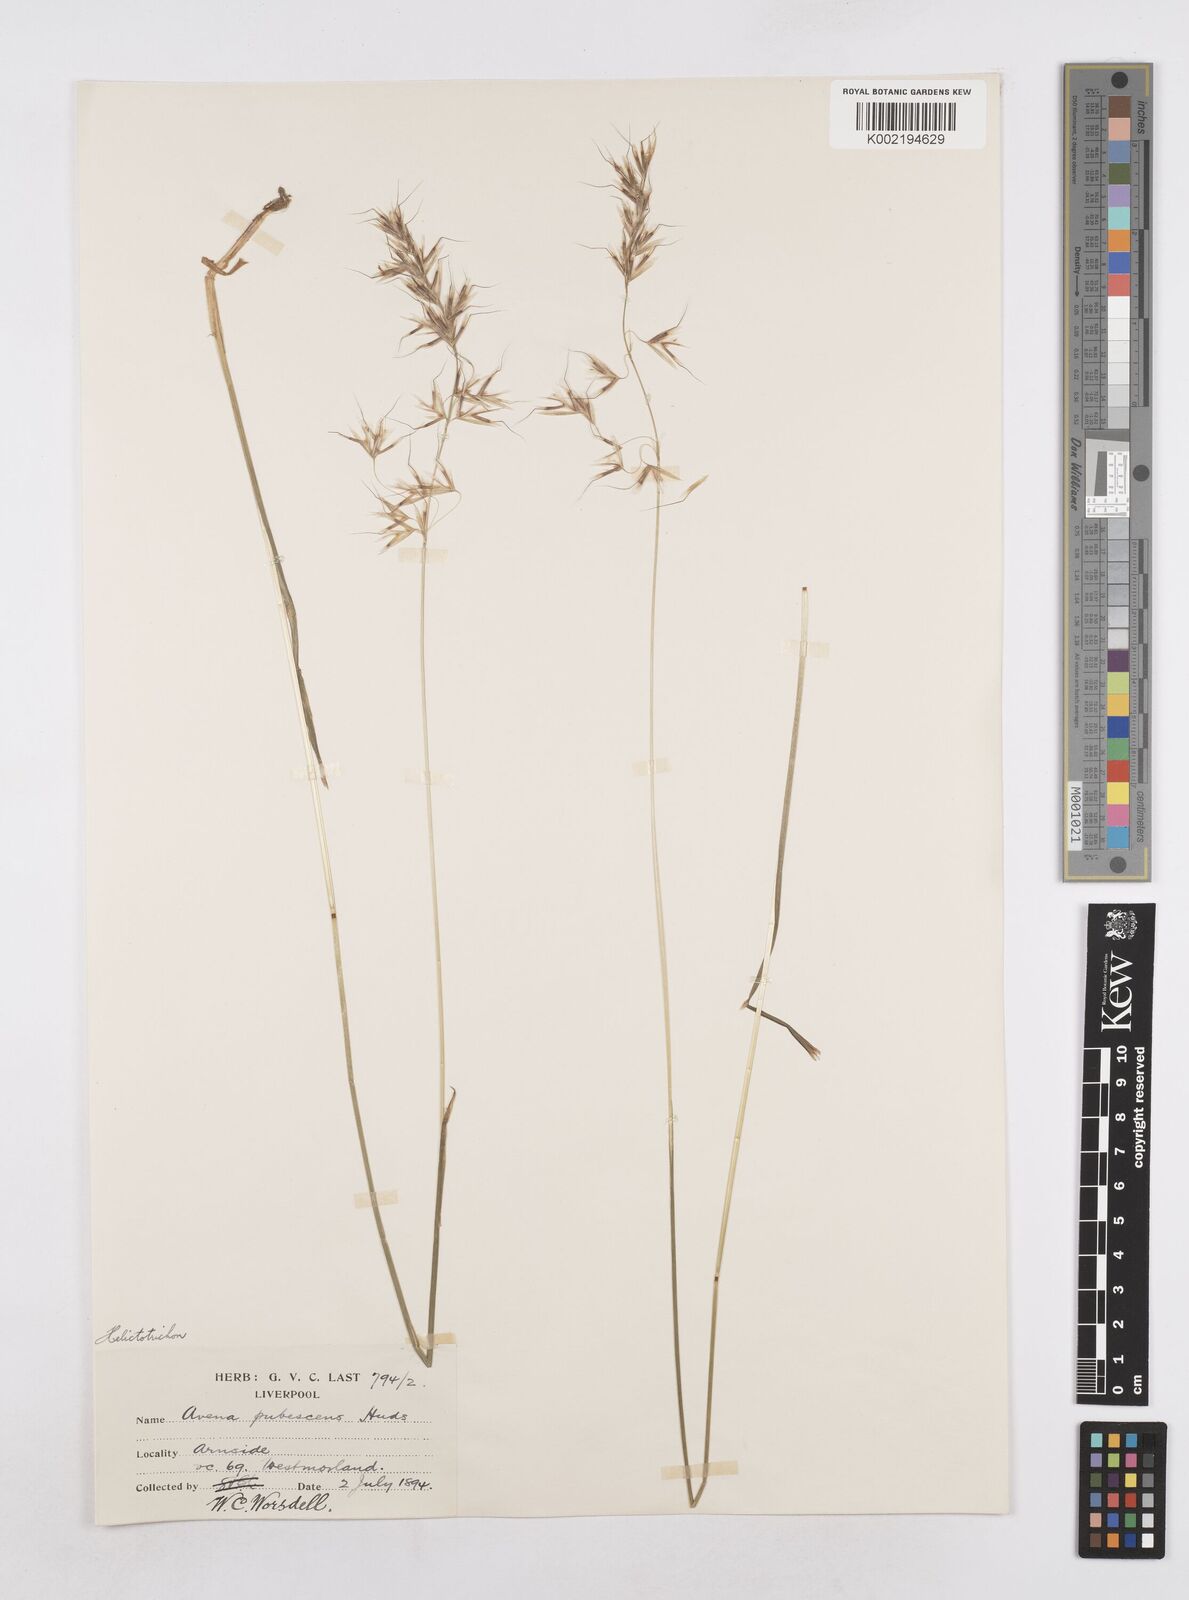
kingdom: Plantae
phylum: Tracheophyta
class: Liliopsida
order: Poales
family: Poaceae
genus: Avenula
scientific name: Avenula pubescens
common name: Downy alpine oatgrass
